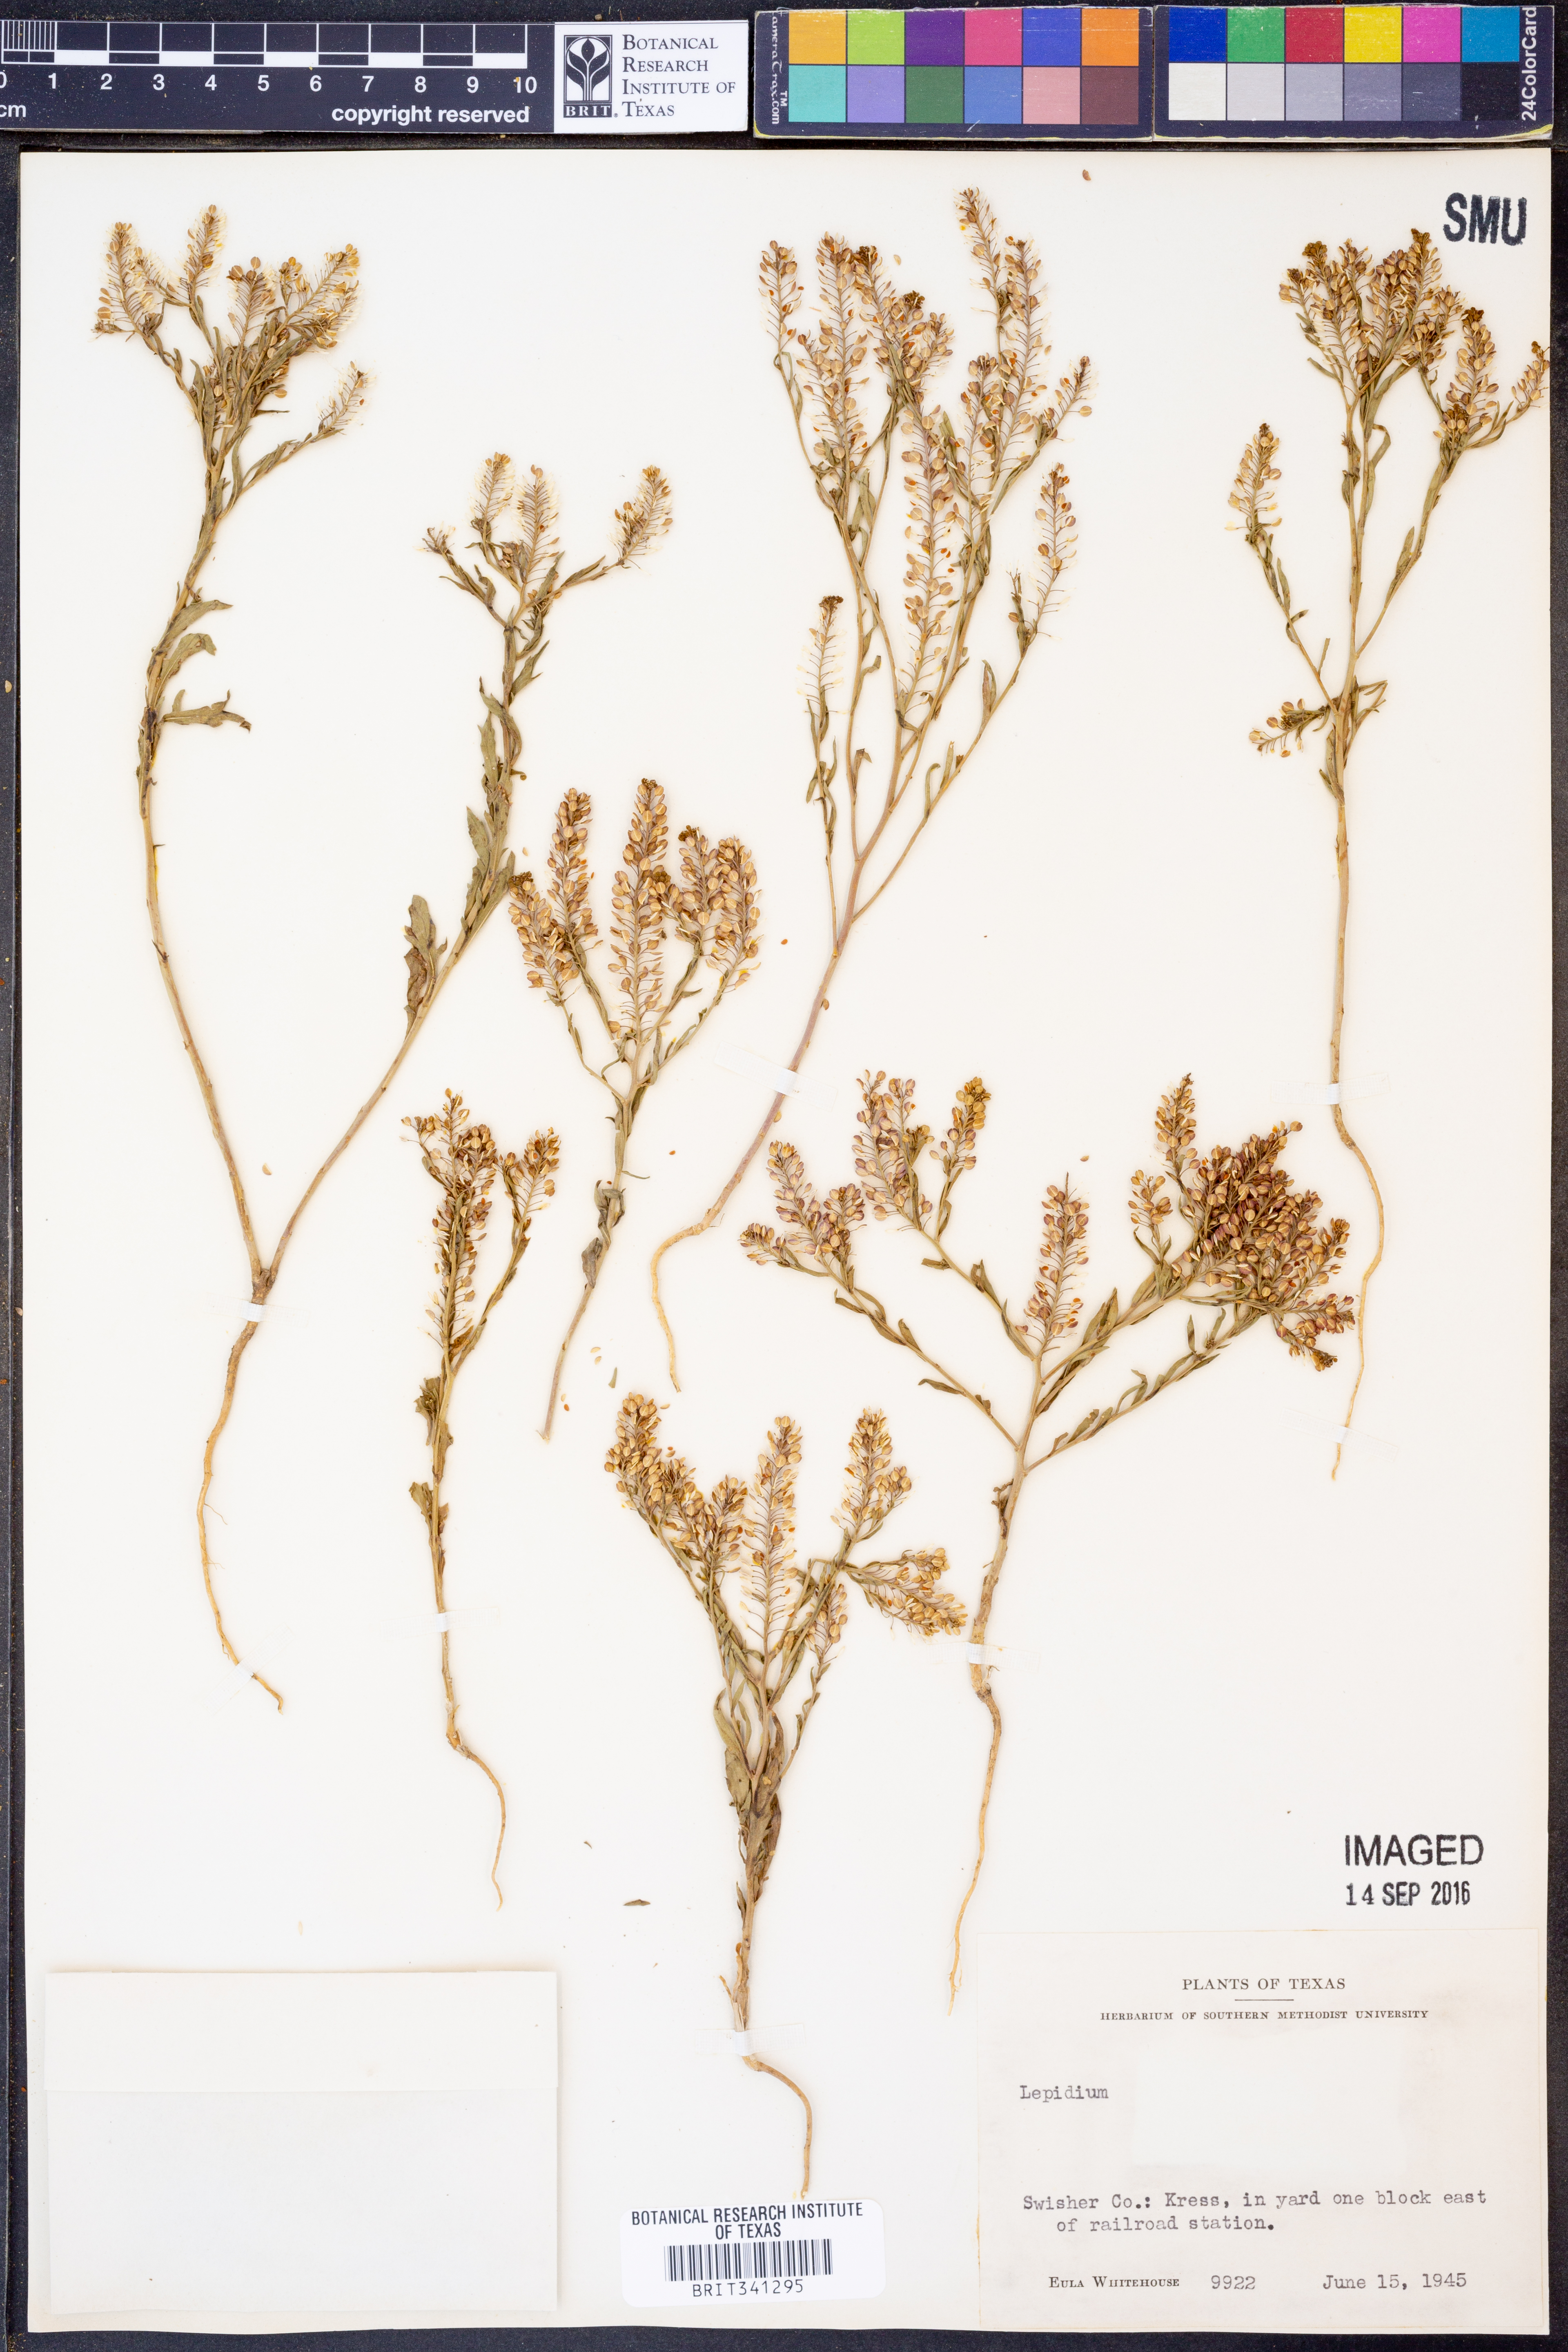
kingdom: Plantae
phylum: Tracheophyta
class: Magnoliopsida
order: Brassicales
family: Brassicaceae
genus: Lepidium
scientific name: Lepidium
